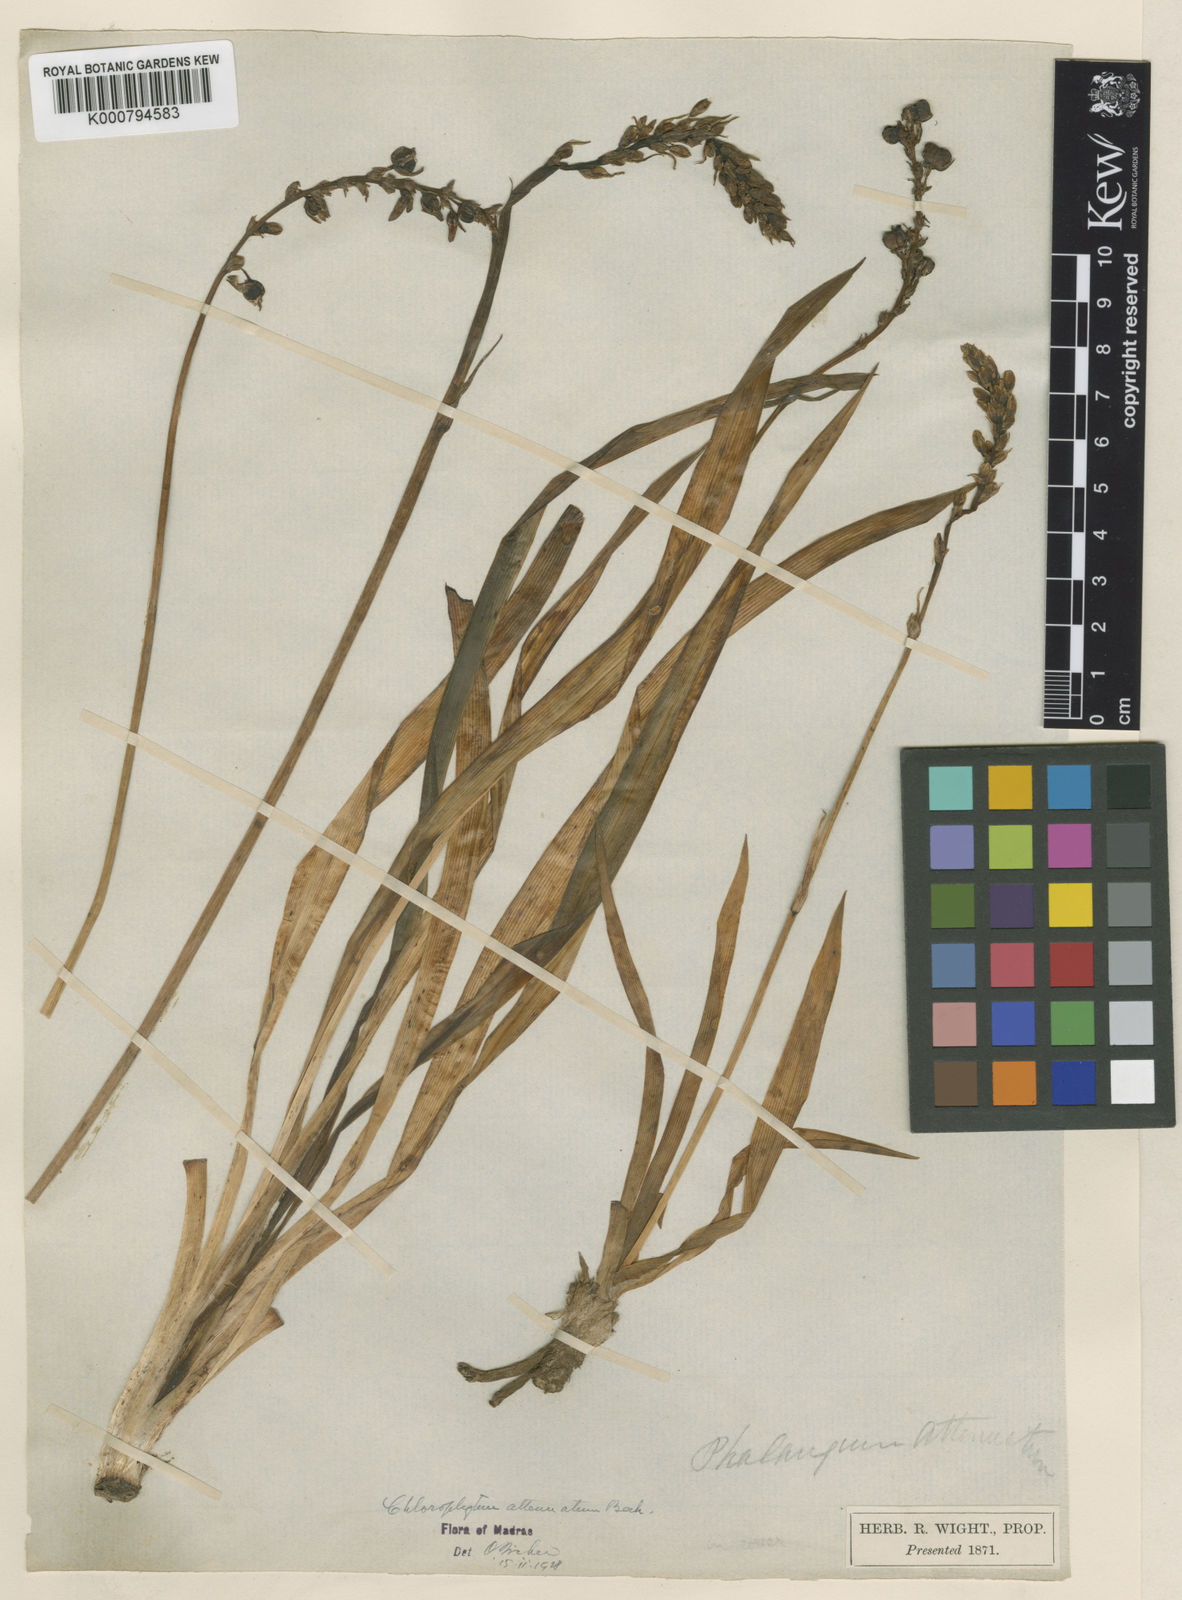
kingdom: Plantae
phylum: Tracheophyta
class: Liliopsida
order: Asparagales
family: Asparagaceae
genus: Chlorophytum
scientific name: Chlorophytum indicum
